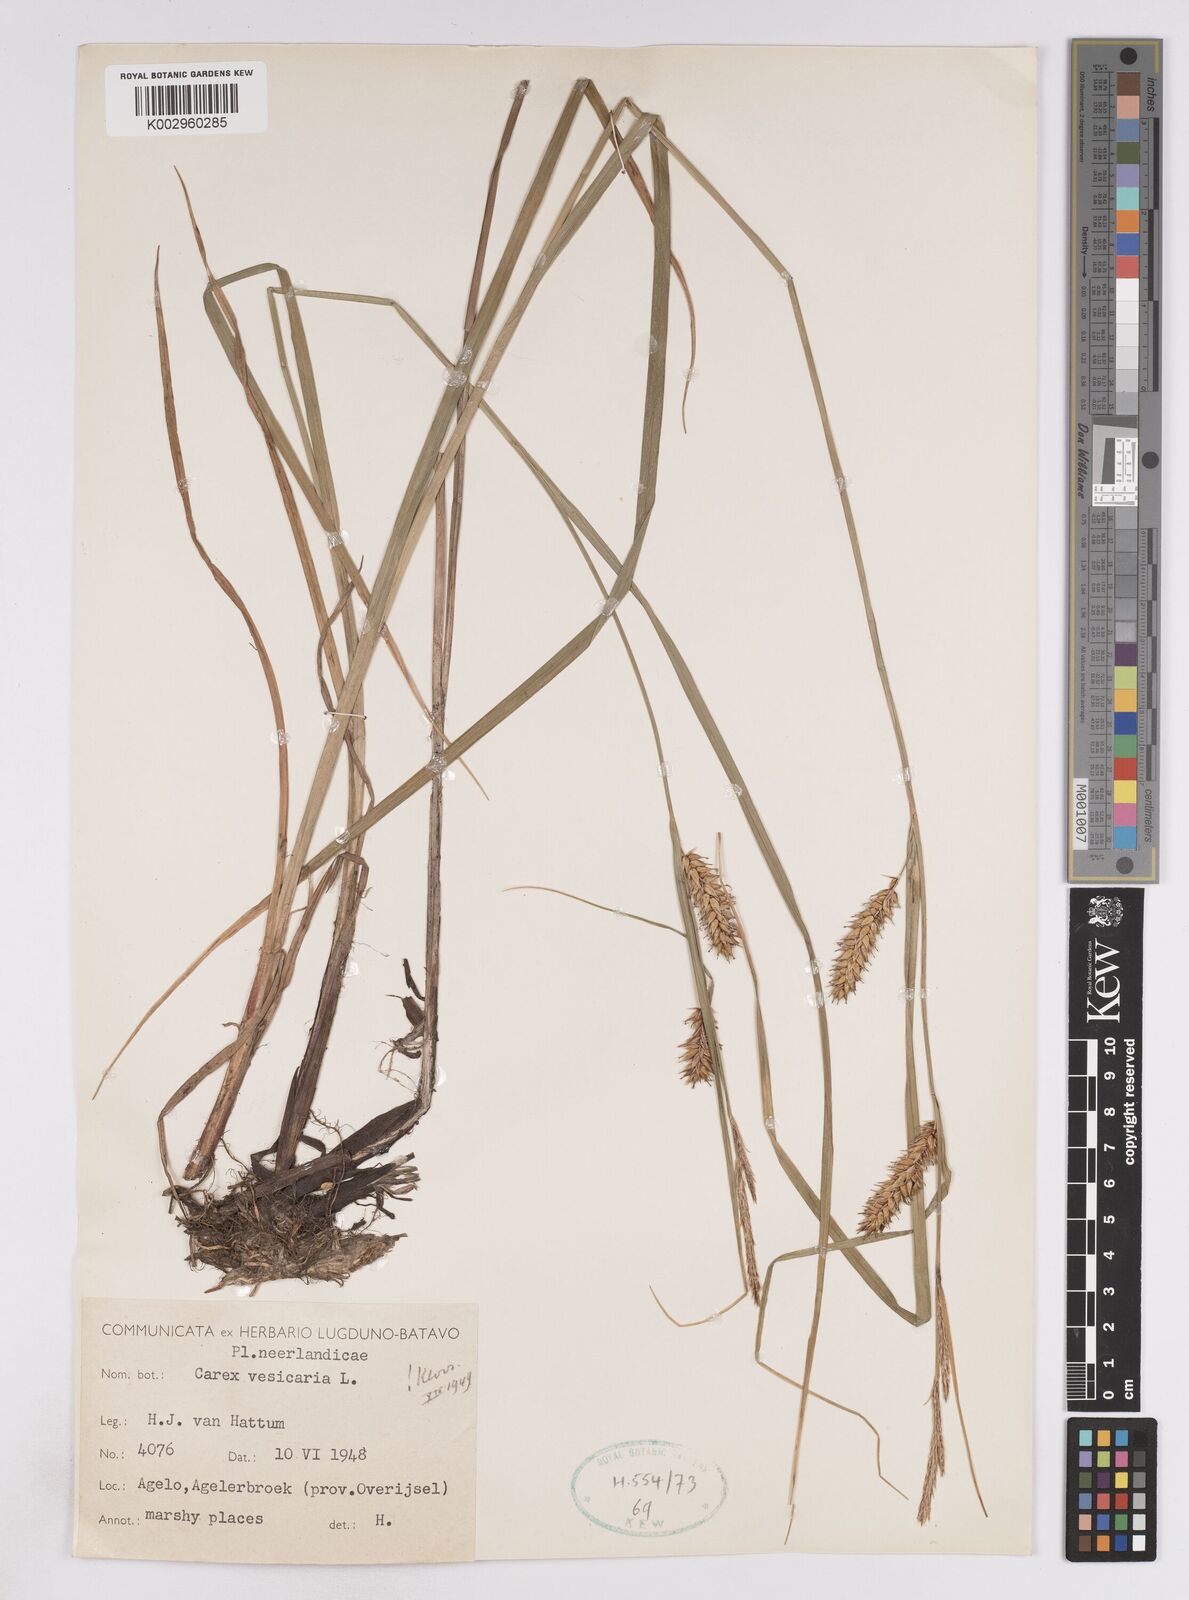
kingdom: Plantae
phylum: Tracheophyta
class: Liliopsida
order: Poales
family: Cyperaceae
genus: Carex
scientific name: Carex vesicaria
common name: Bladder-sedge
